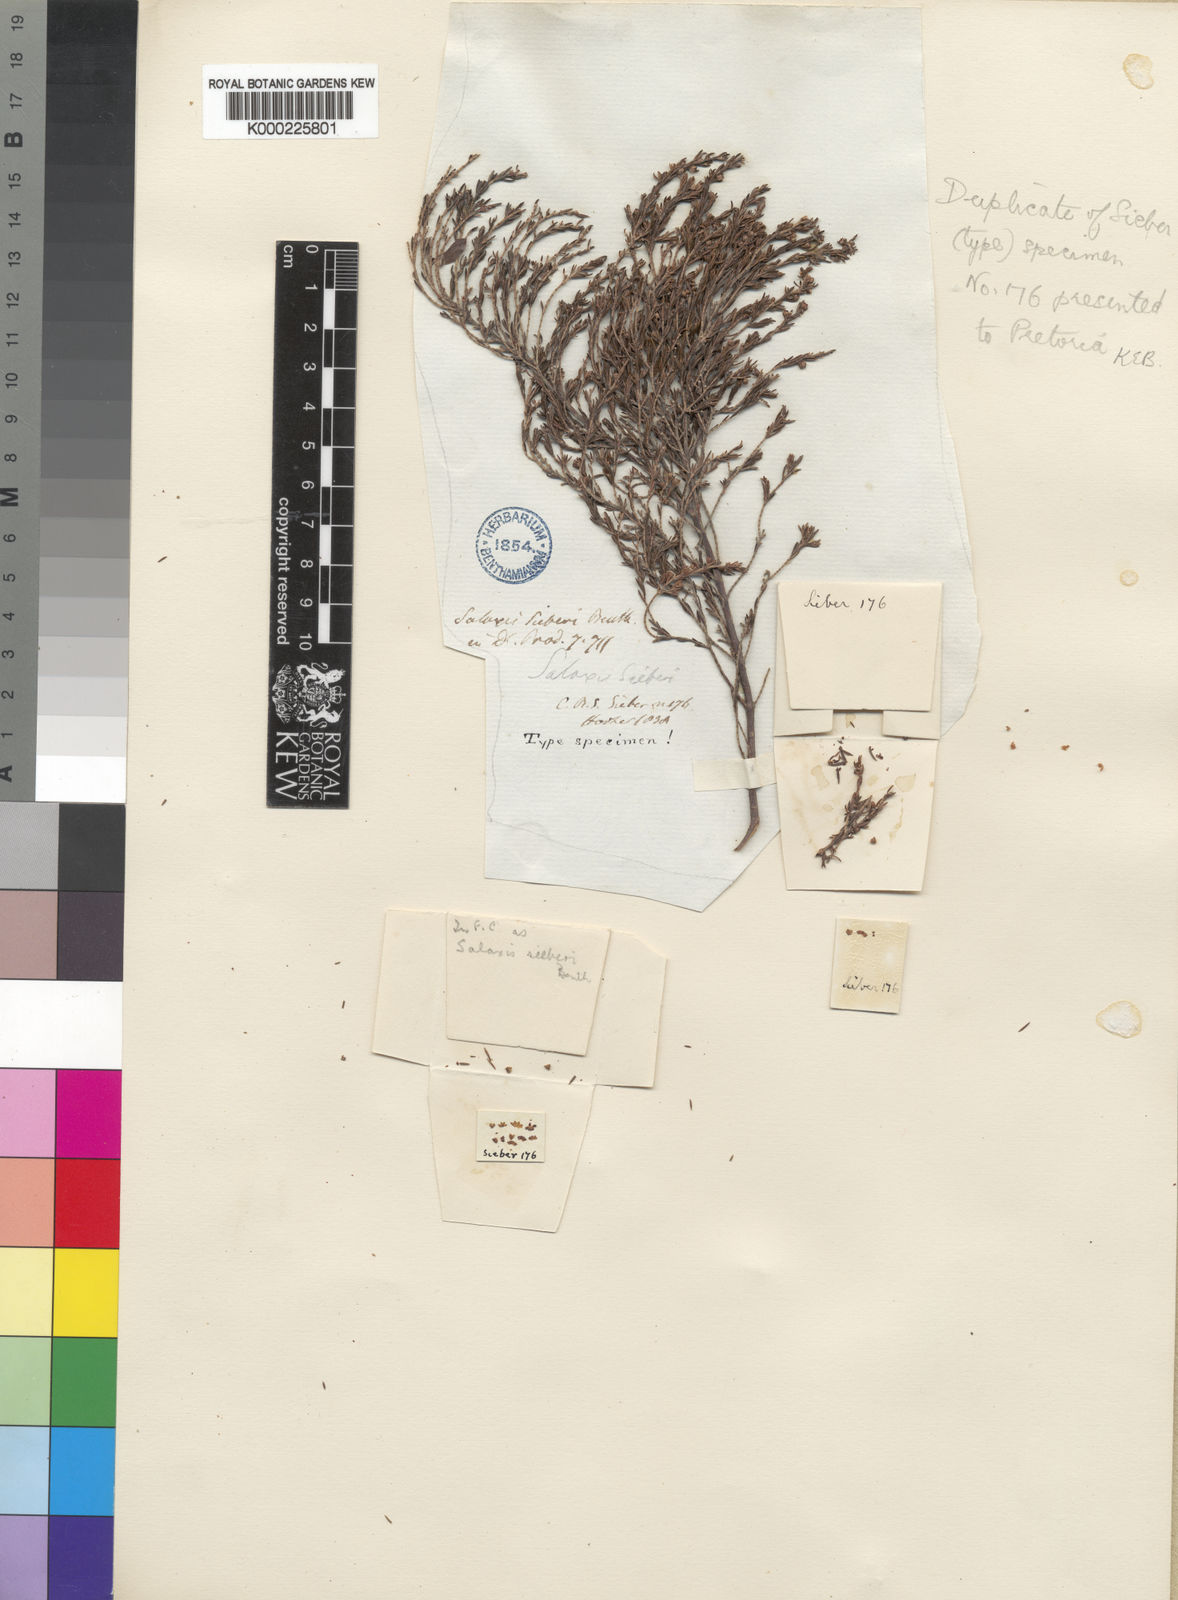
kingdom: Plantae
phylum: Tracheophyta
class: Magnoliopsida
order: Ericales
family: Ericaceae
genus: Erica
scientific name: Erica axillaris
